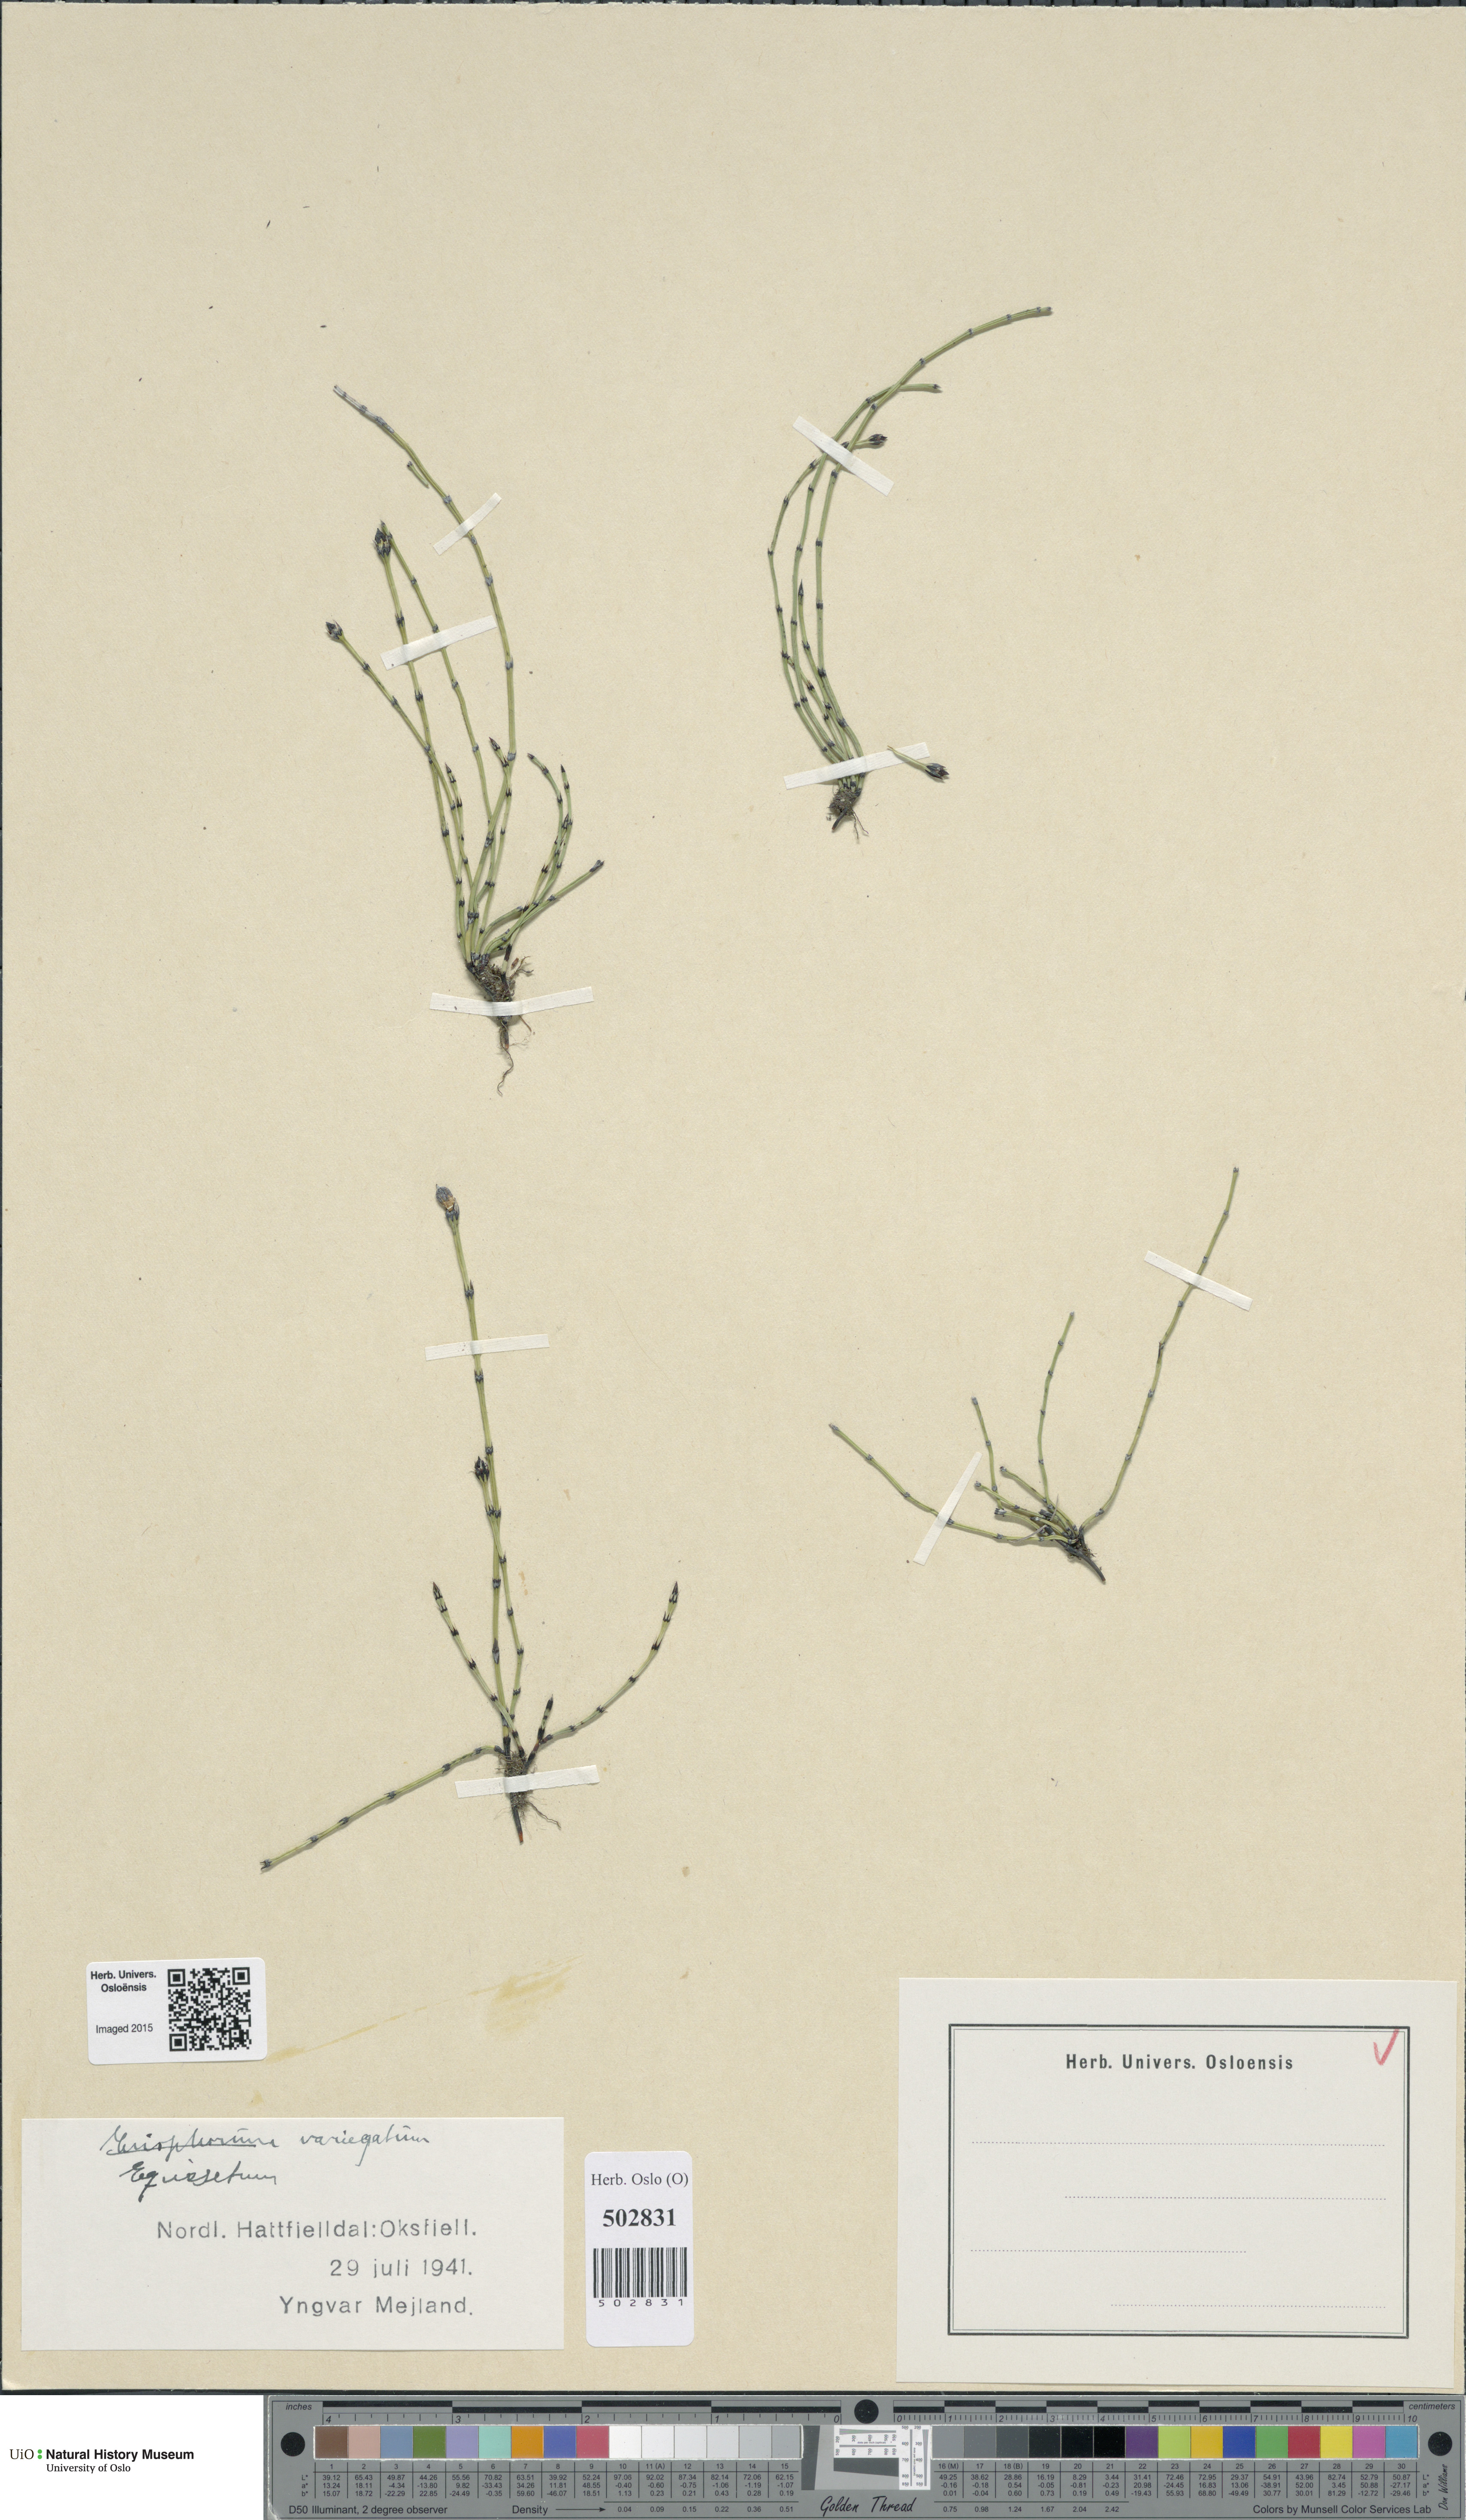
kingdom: Plantae
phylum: Tracheophyta
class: Polypodiopsida
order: Equisetales
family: Equisetaceae
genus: Equisetum
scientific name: Equisetum variegatum
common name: Variegated horsetail
